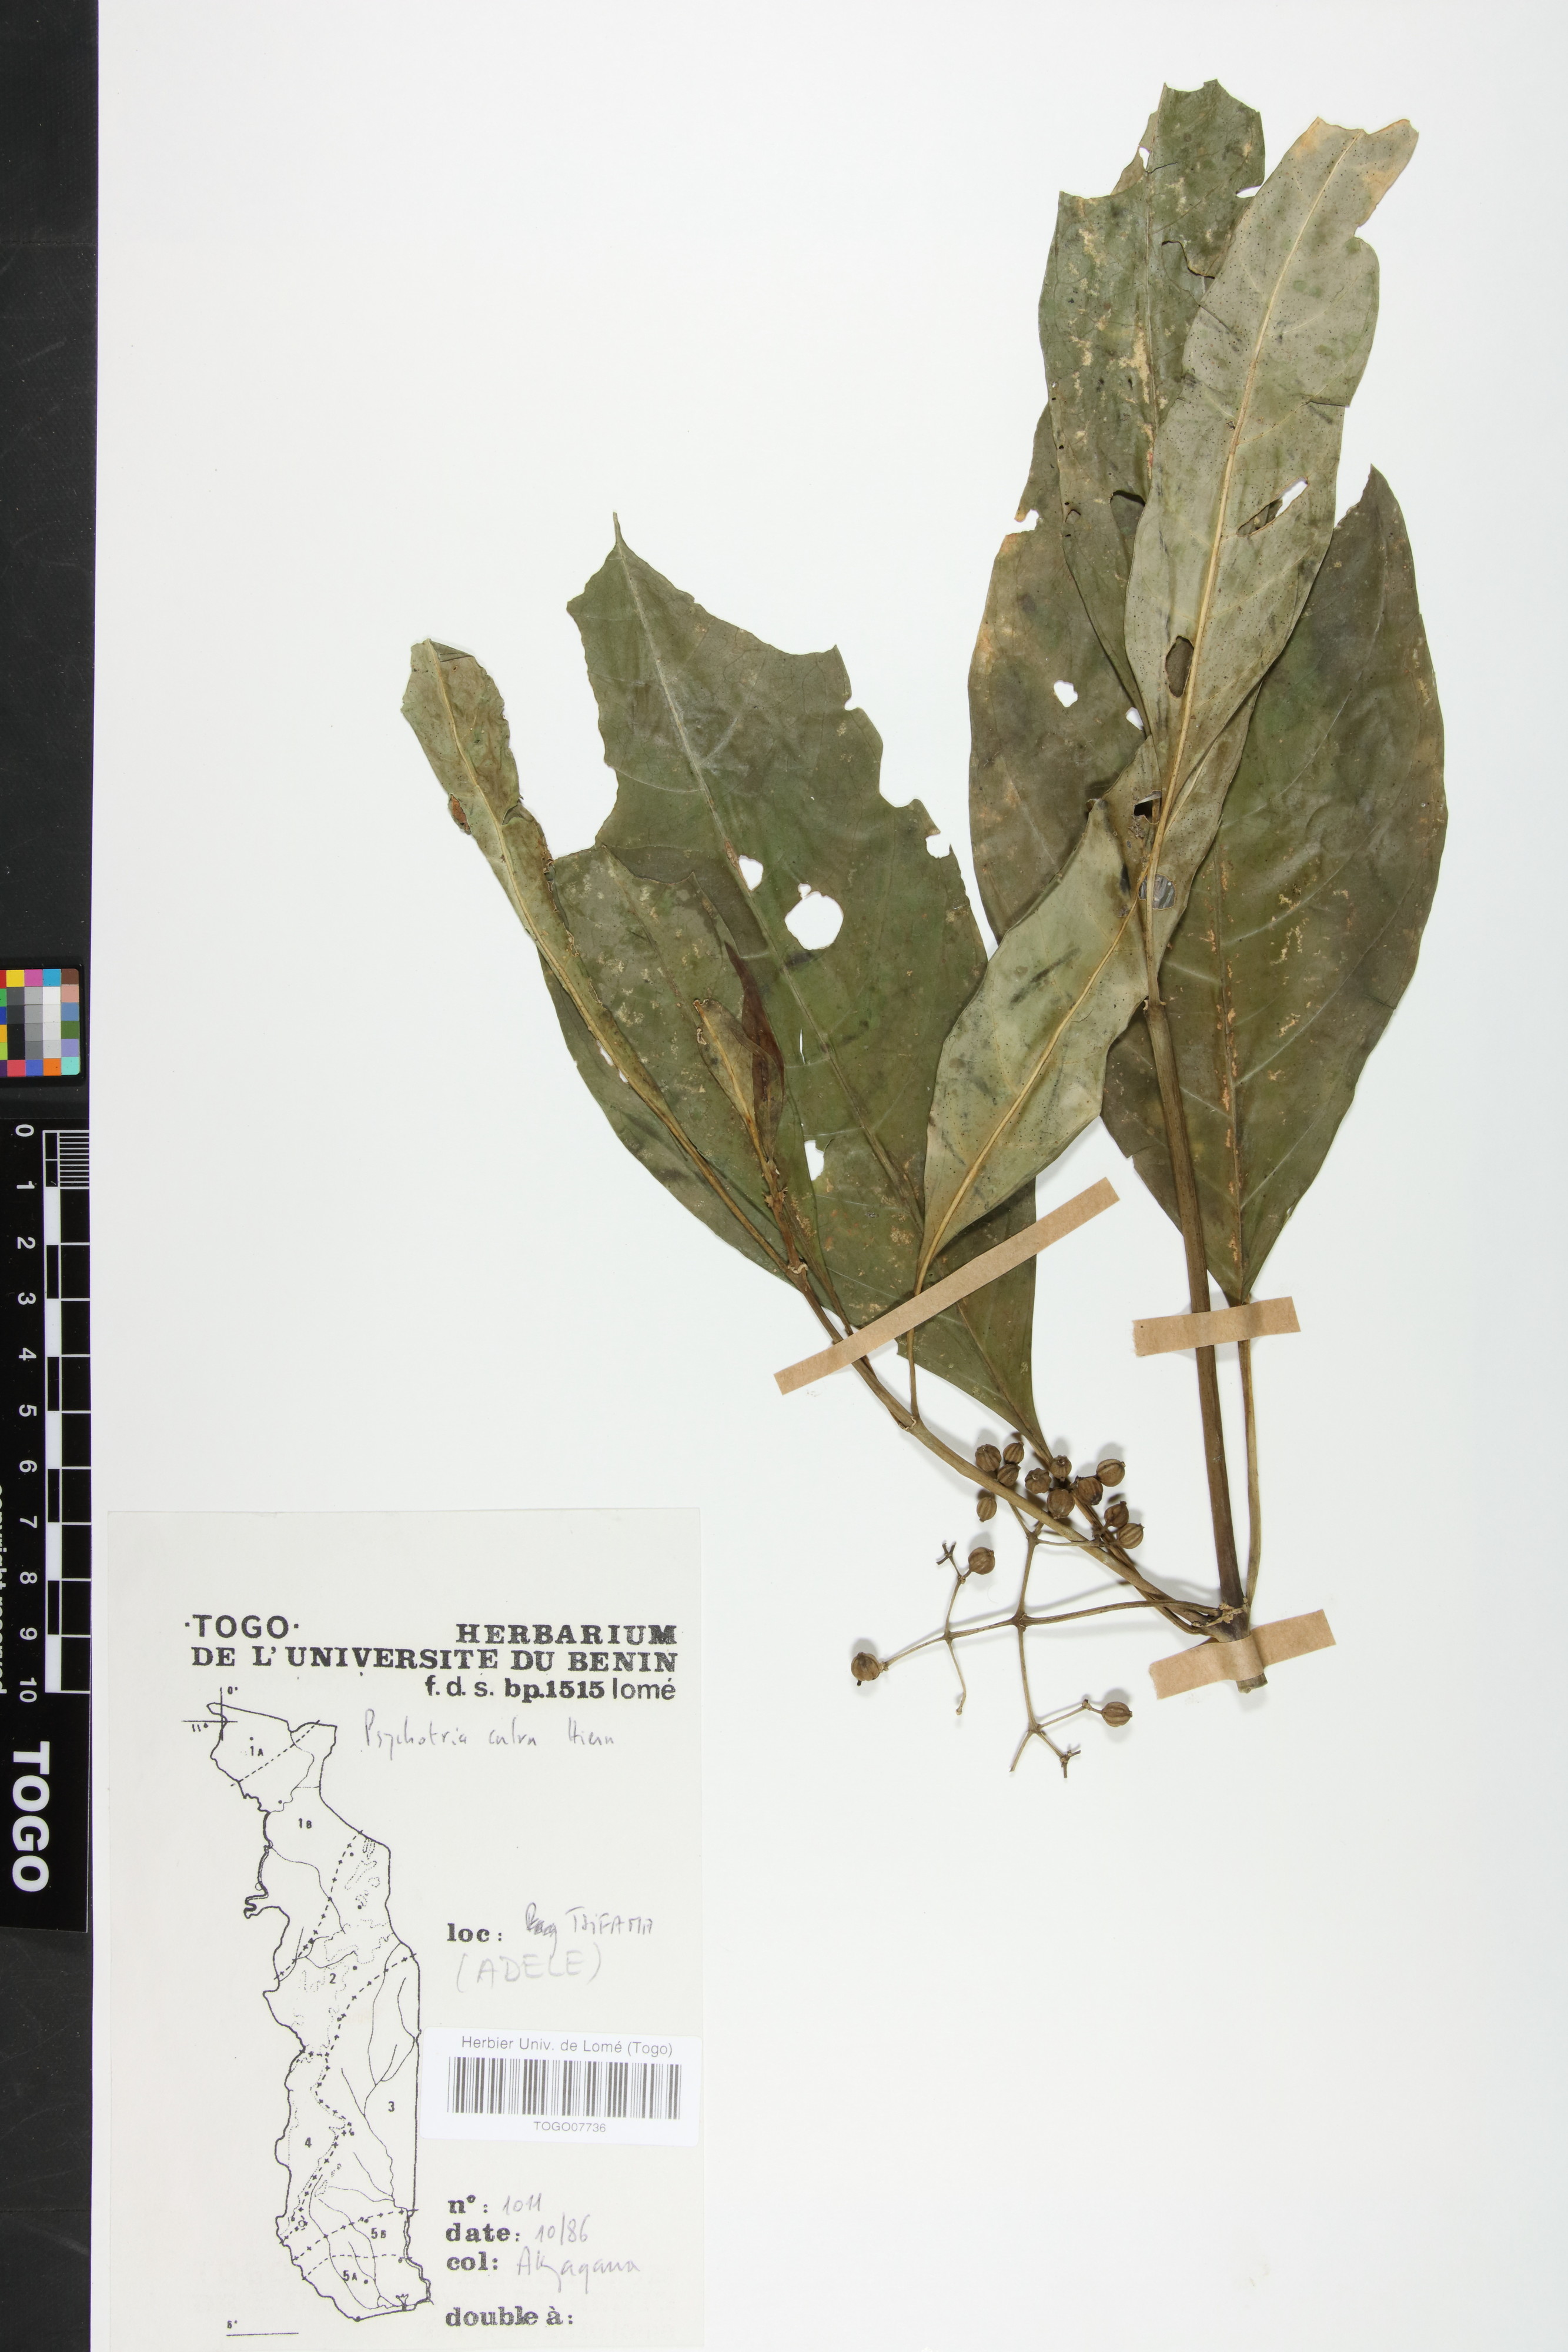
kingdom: Plantae
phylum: Tracheophyta
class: Magnoliopsida
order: Gentianales
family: Rubiaceae
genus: Psychotria
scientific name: Psychotria calva
